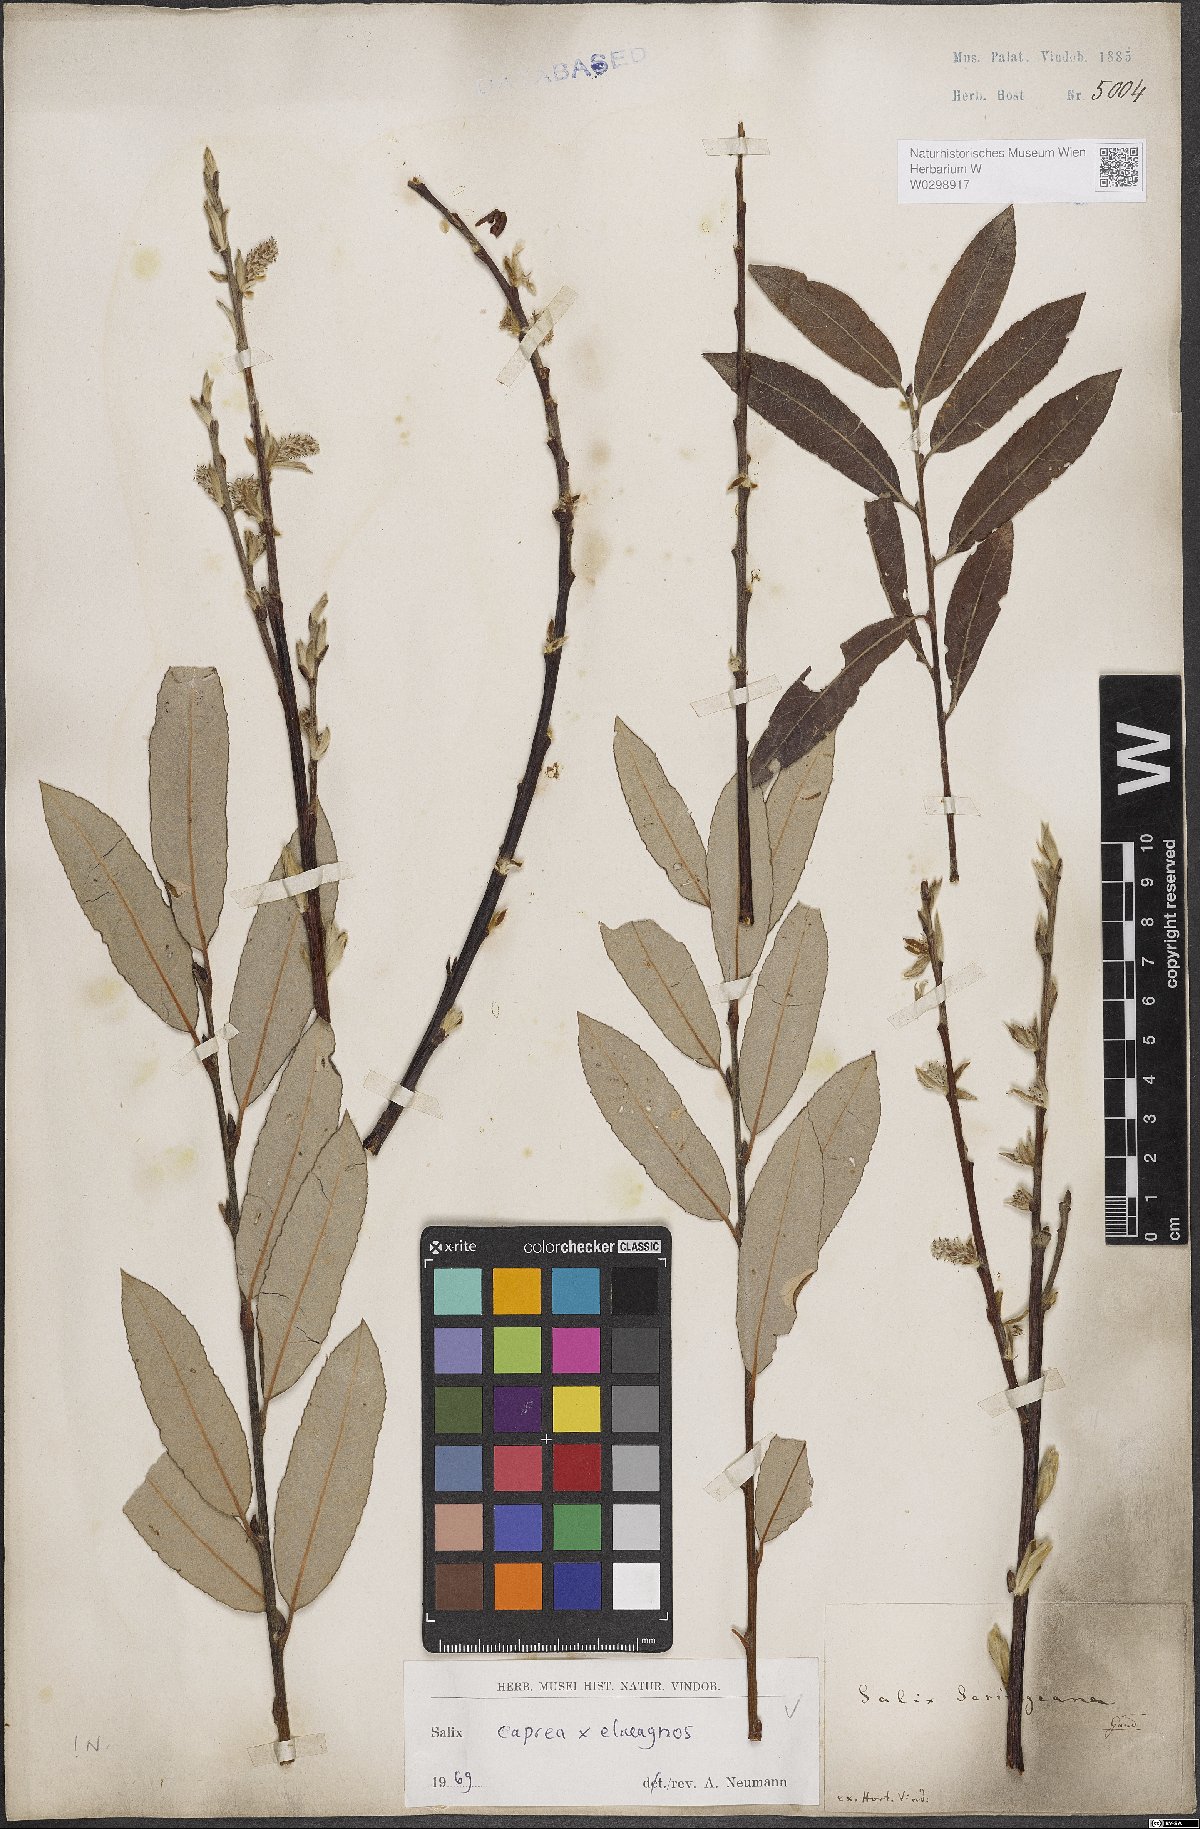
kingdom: Plantae
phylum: Tracheophyta
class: Magnoliopsida
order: Malpighiales
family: Salicaceae
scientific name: Salicaceae
